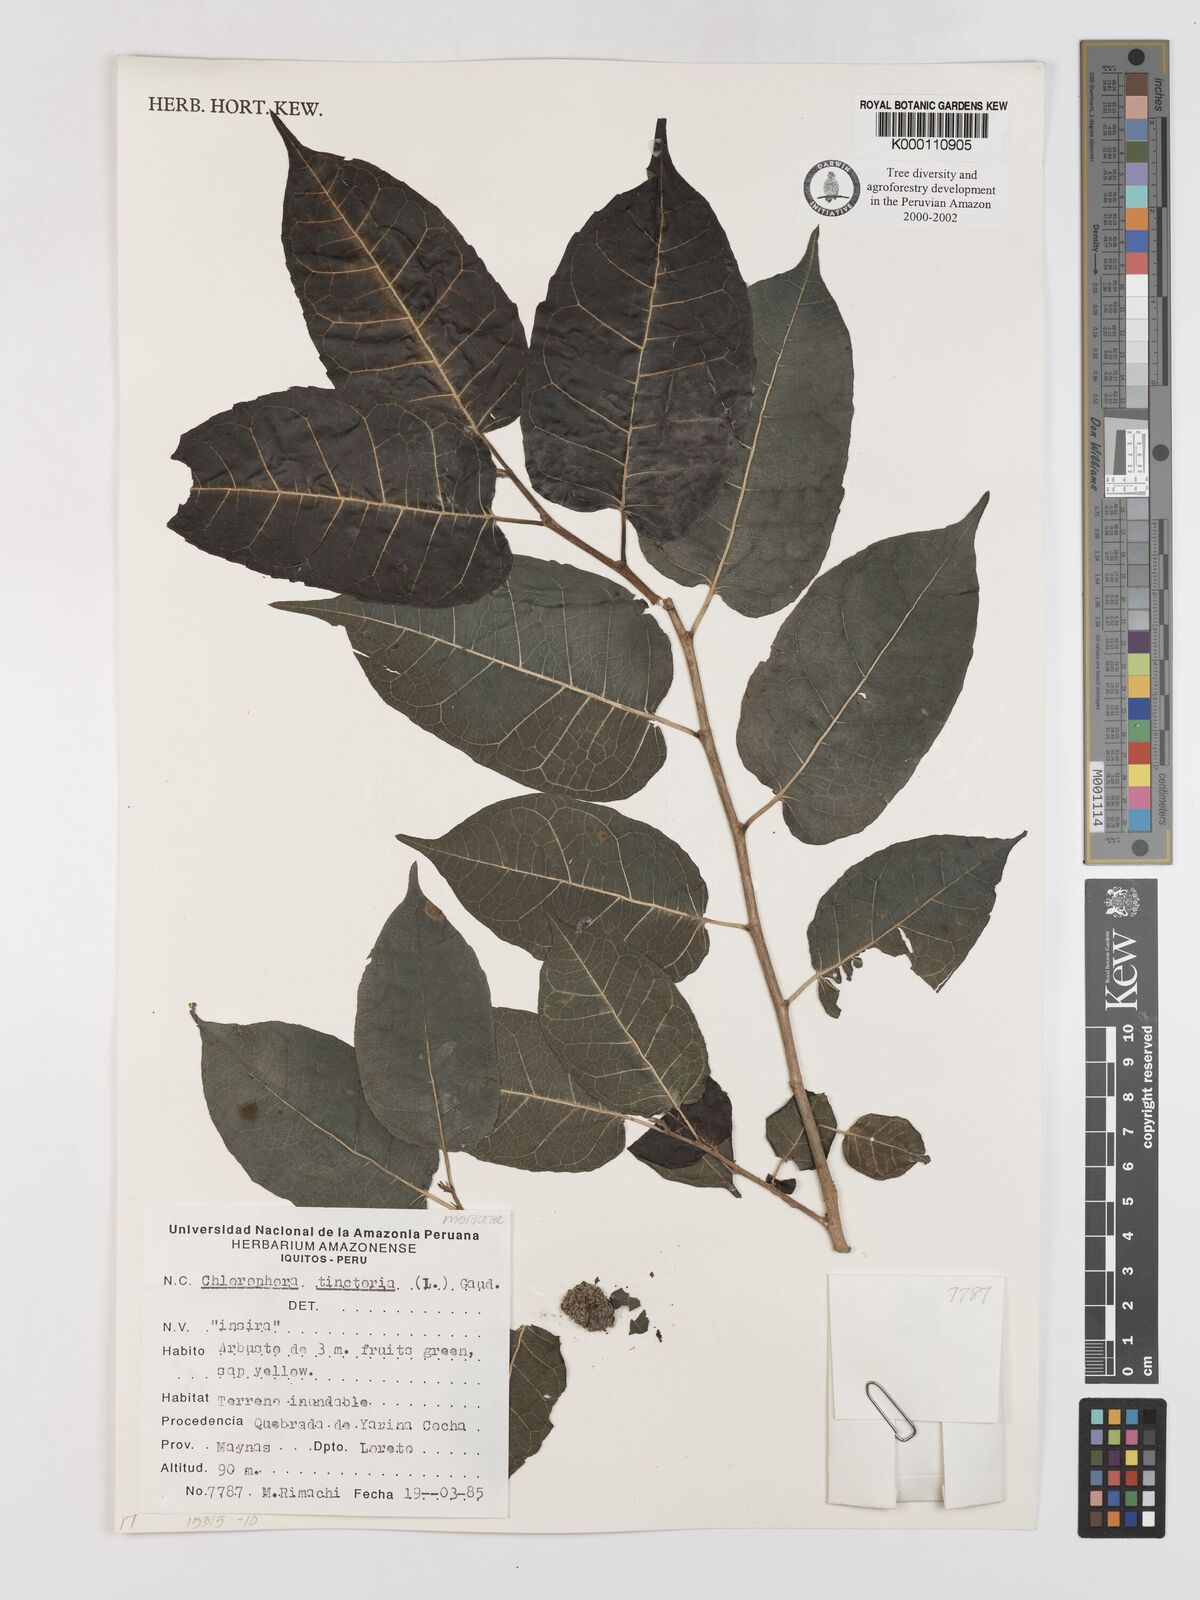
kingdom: Plantae
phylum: Tracheophyta
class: Magnoliopsida
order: Rosales
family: Moraceae
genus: Maclura
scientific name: Maclura tinctoria
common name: Old fustic
